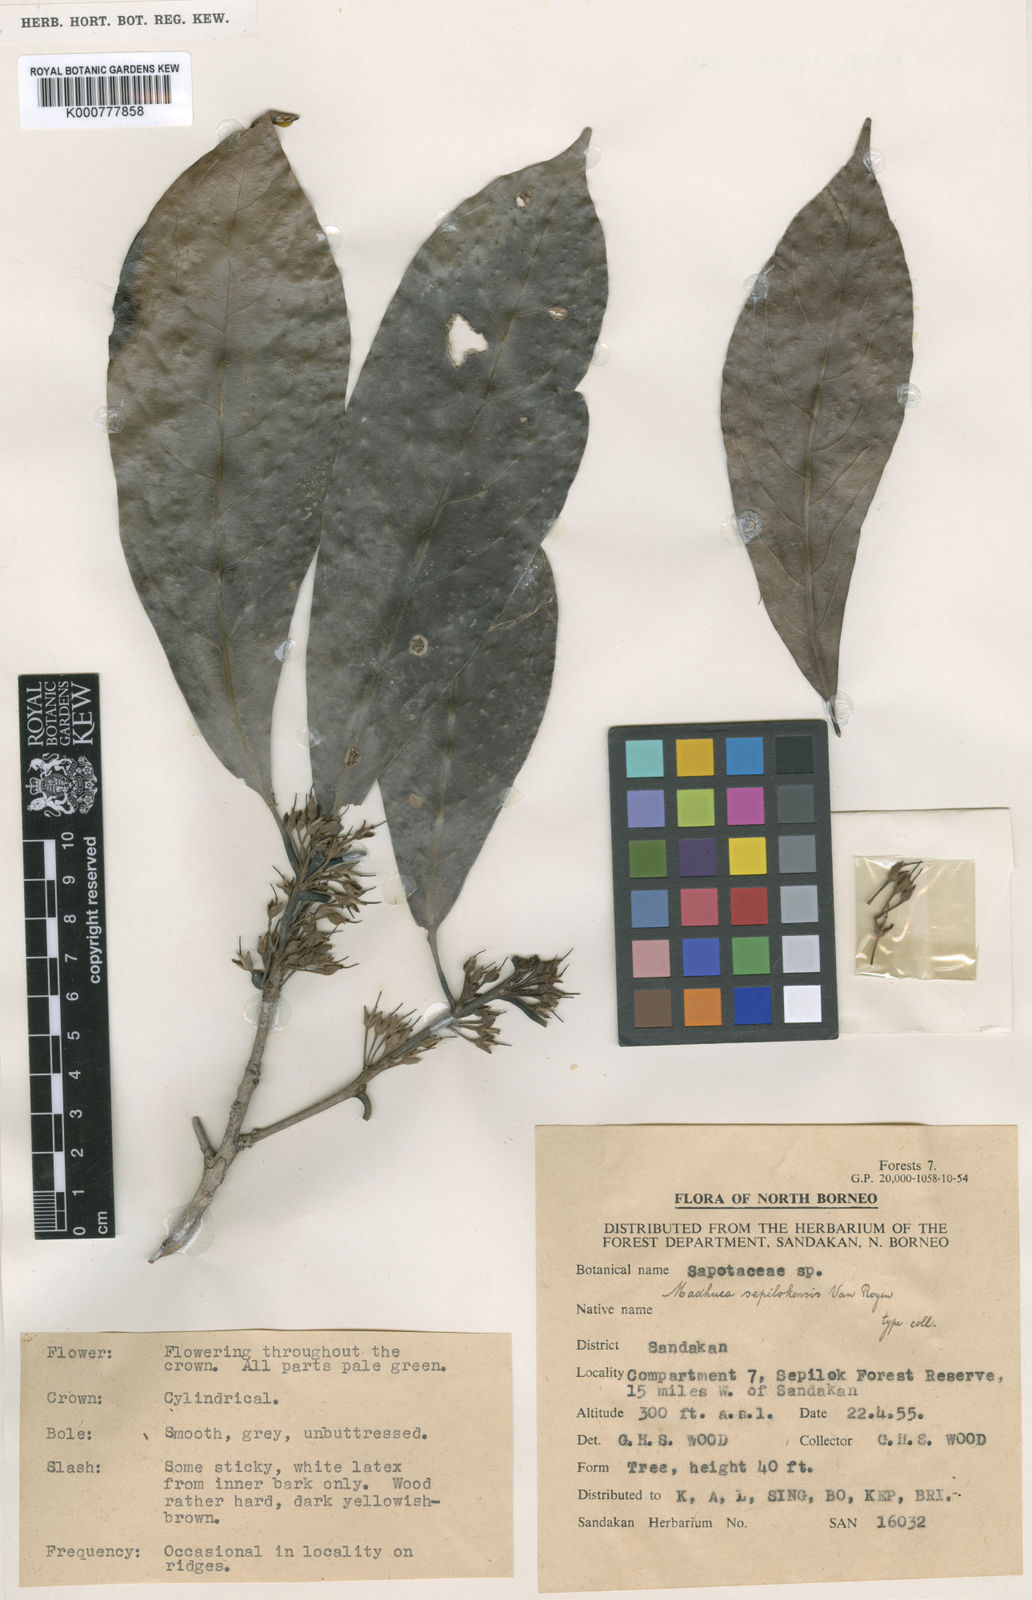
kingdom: Plantae
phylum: Tracheophyta
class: Magnoliopsida
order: Ericales
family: Sapotaceae
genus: Madhuca
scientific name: Madhuca sepilokensis
